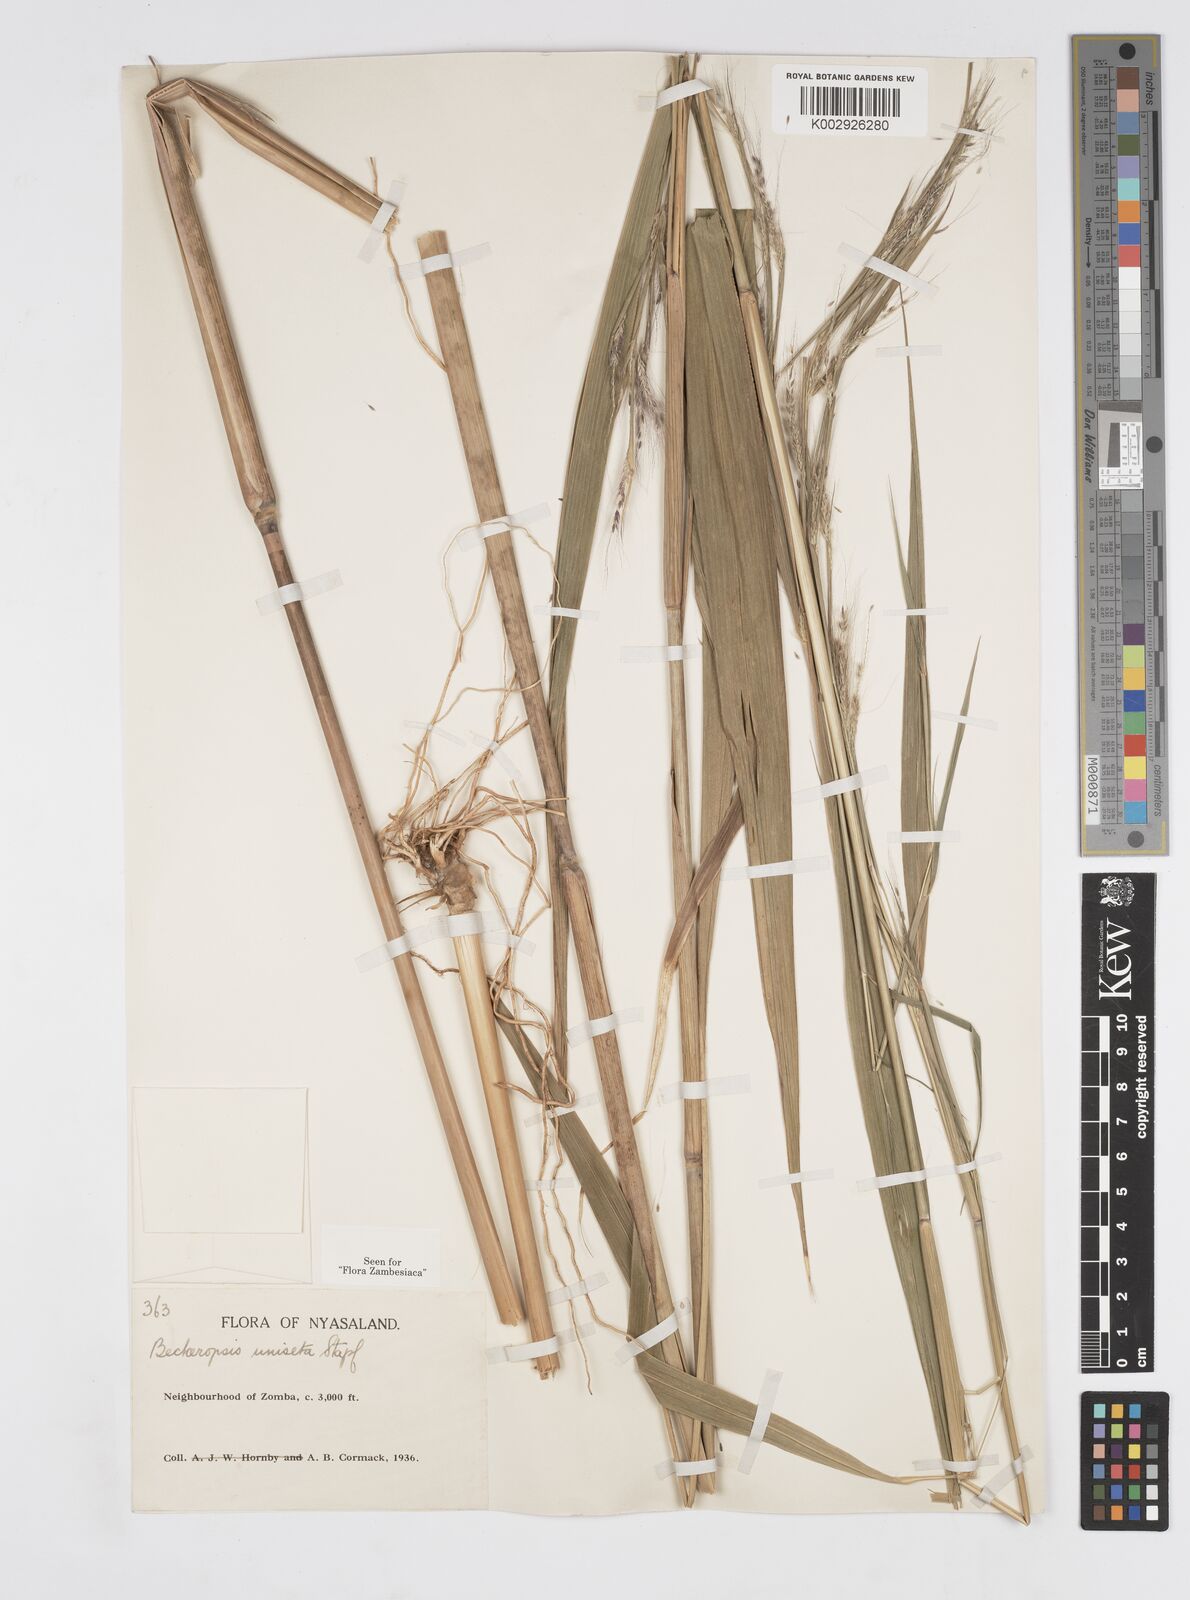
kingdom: Plantae
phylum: Tracheophyta
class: Liliopsida
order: Poales
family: Poaceae
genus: Cenchrus
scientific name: Cenchrus unisetus
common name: Natal grass
